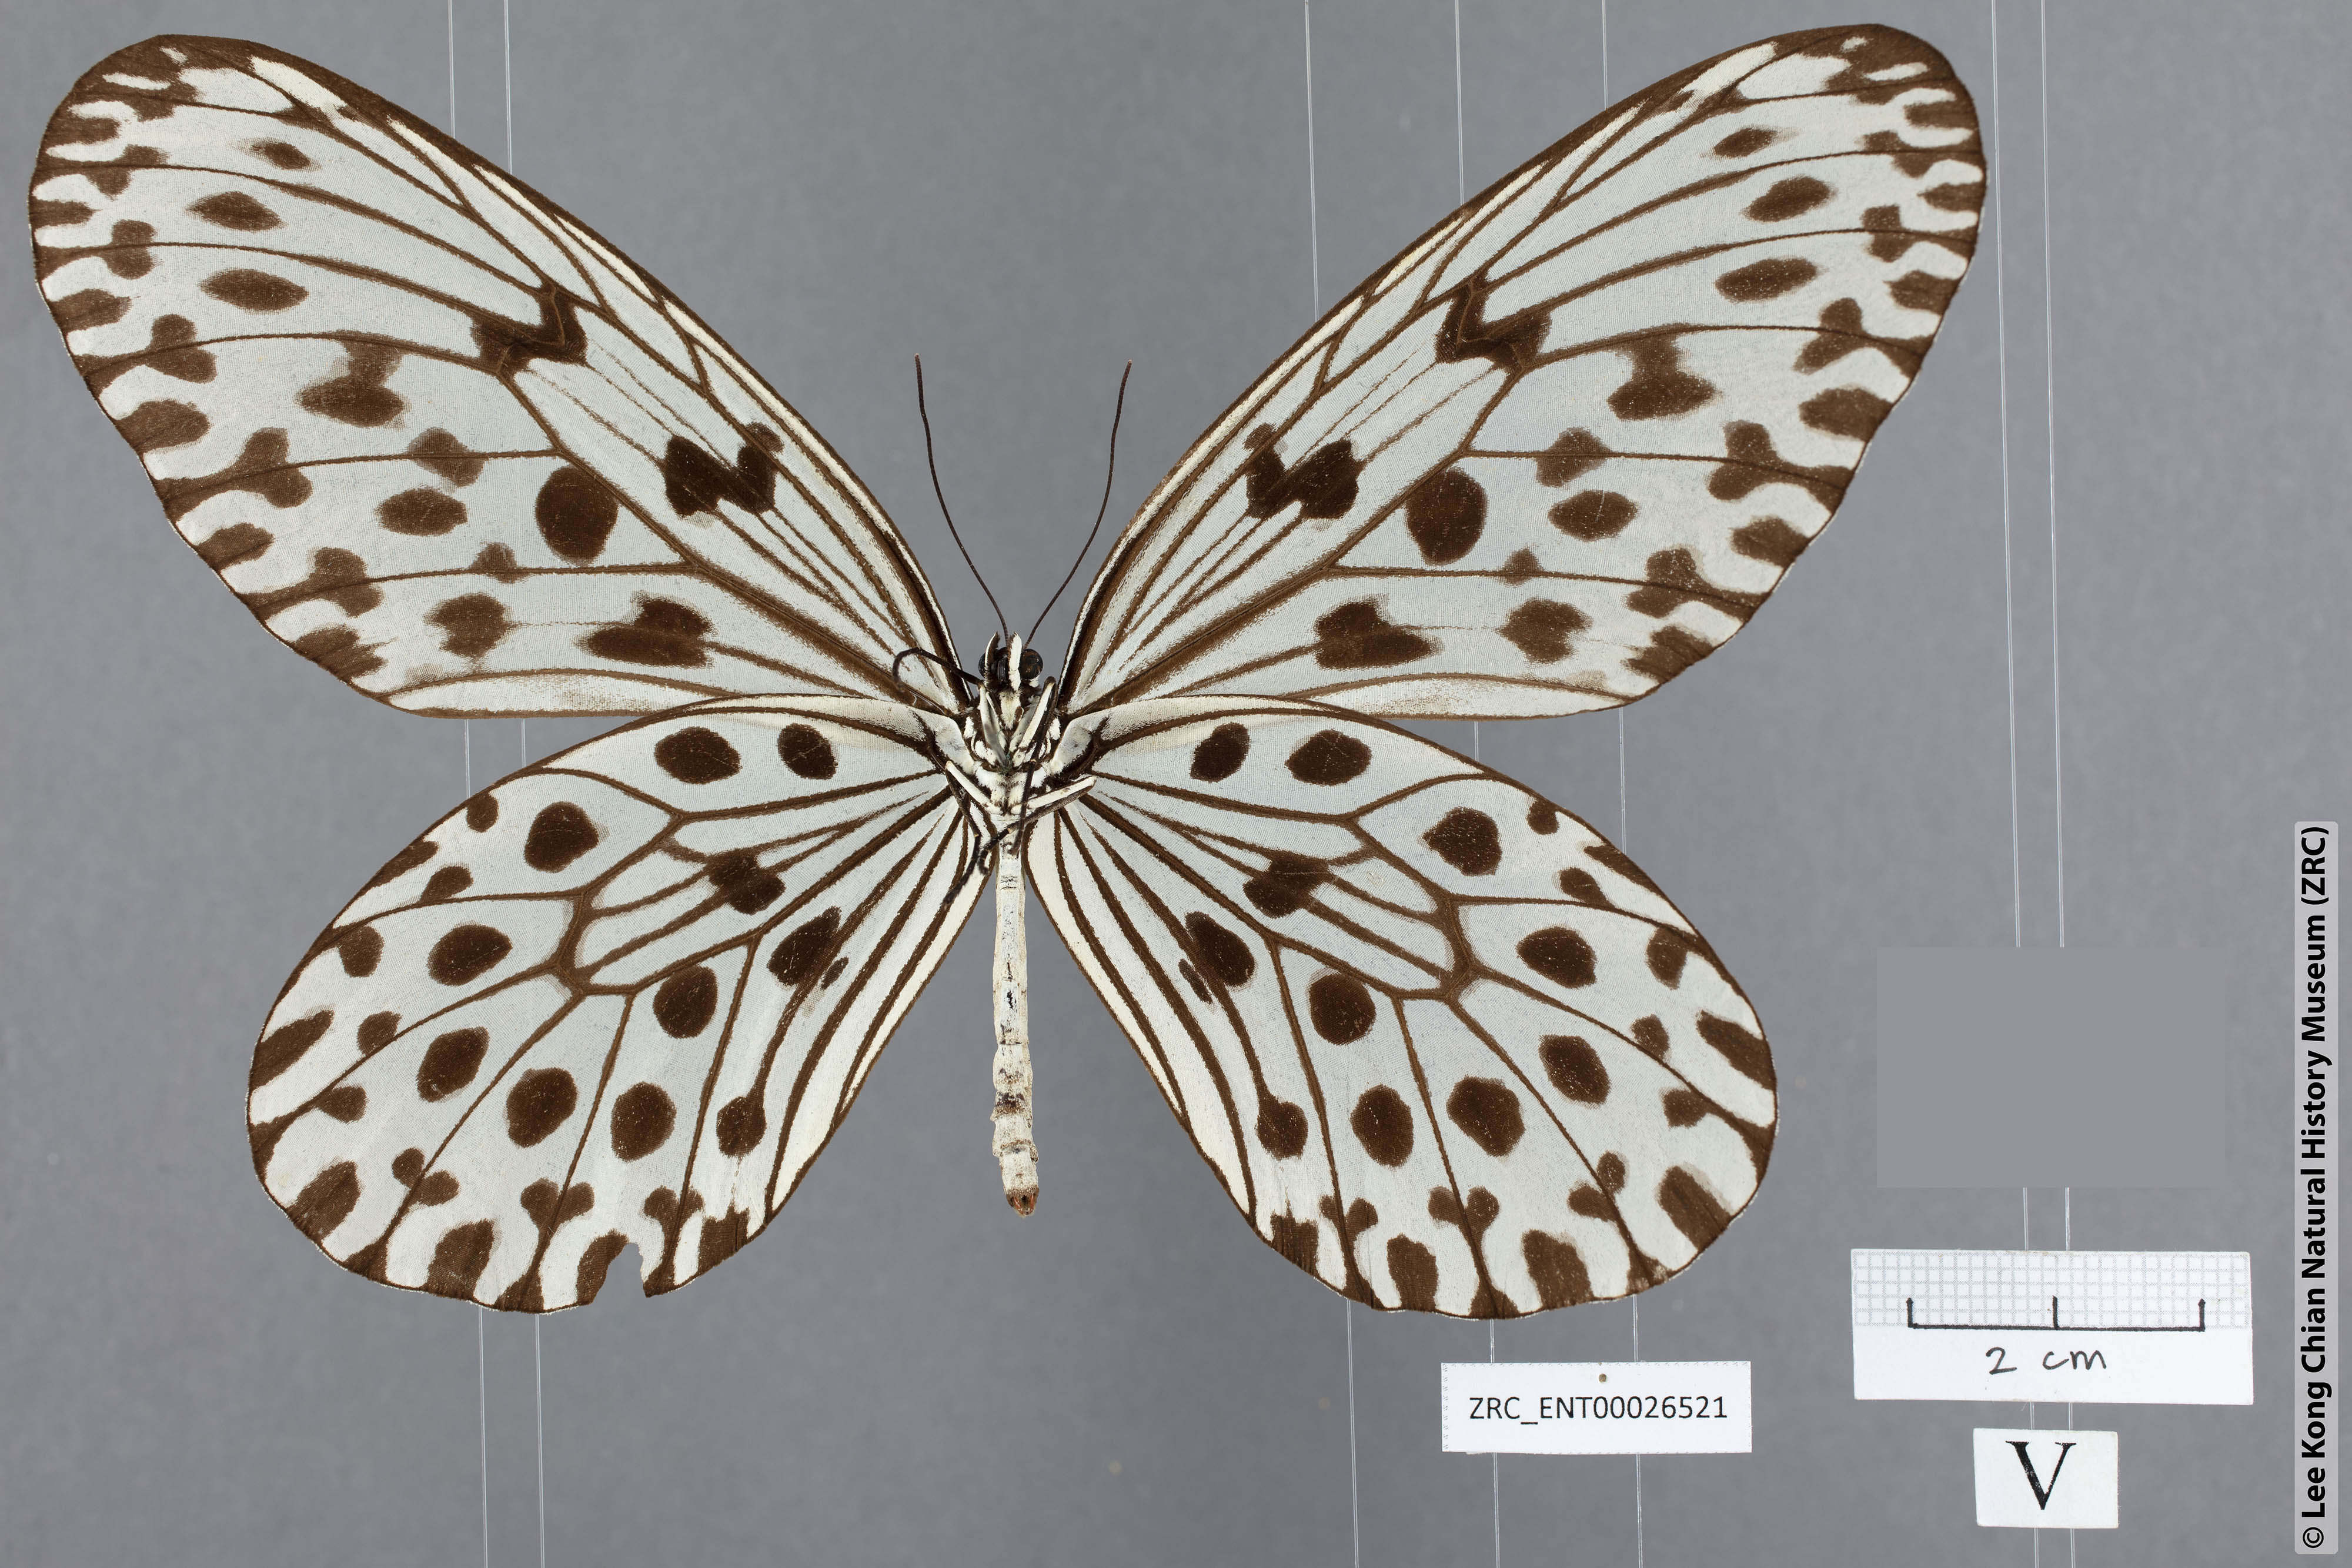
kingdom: Animalia
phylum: Arthropoda
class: Insecta
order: Lepidoptera
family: Nymphalidae
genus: Idea
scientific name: Idea hypermnestra
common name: Malayan tree nymph
